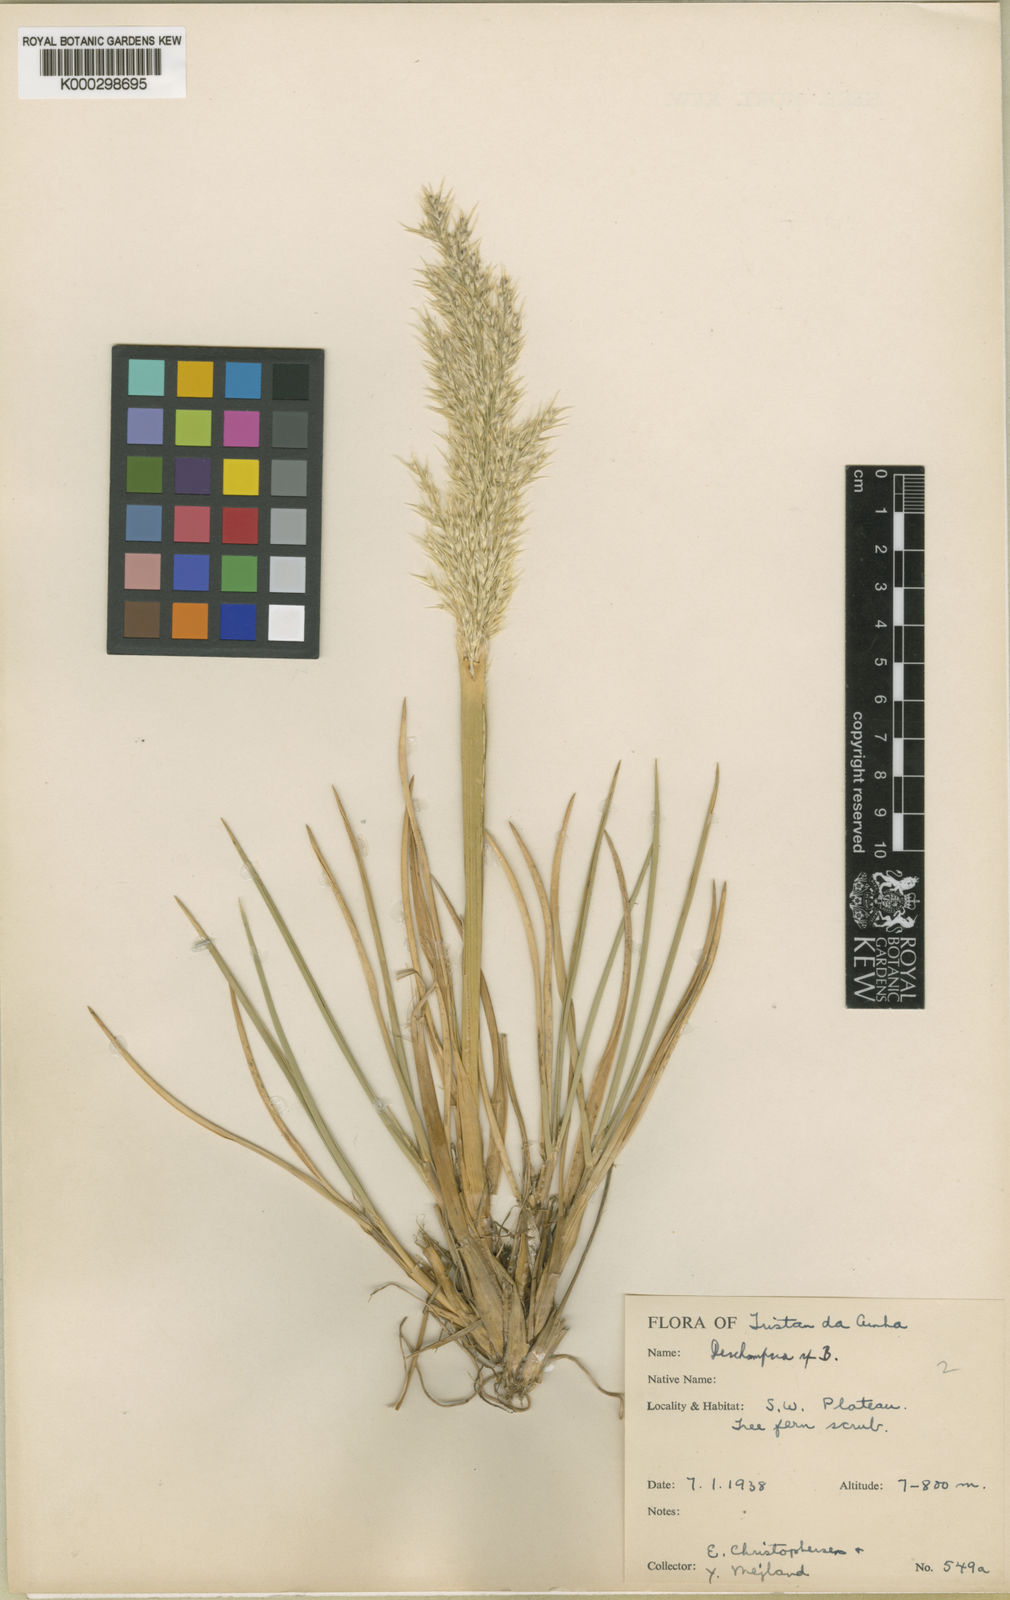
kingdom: Plantae
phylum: Tracheophyta
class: Liliopsida
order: Poales
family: Poaceae
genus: Deschampsia
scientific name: Deschampsia
